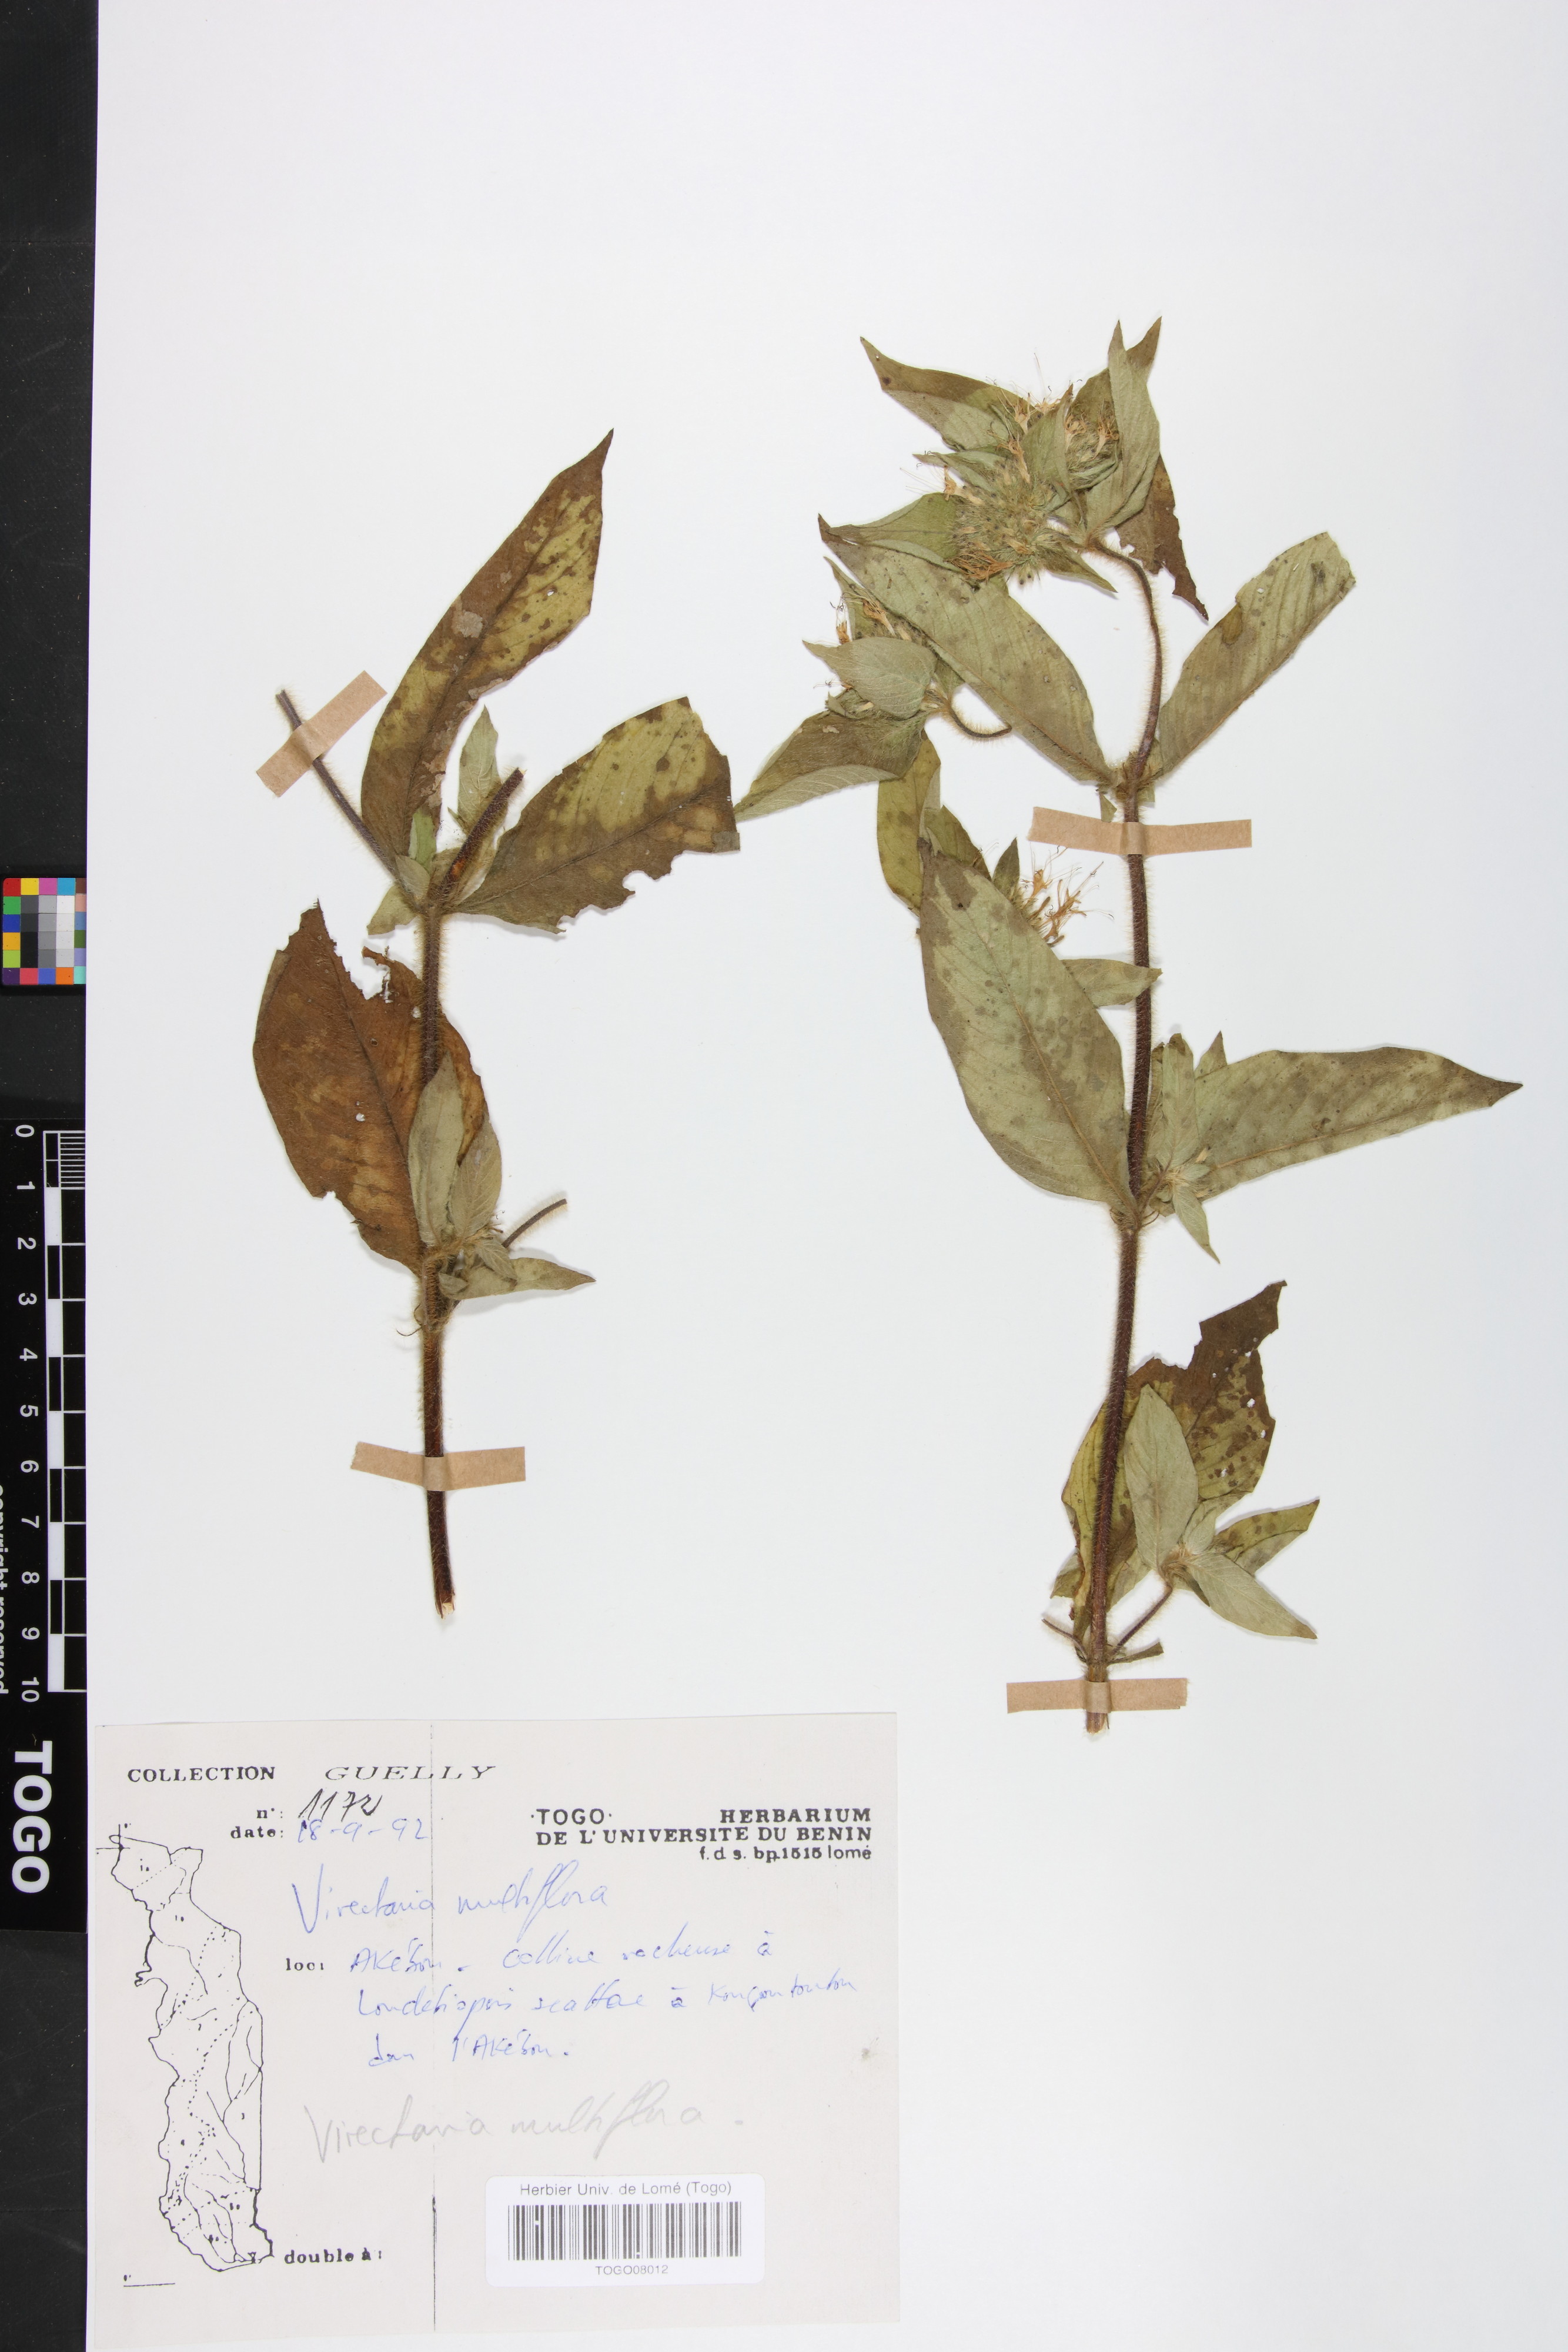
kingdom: Plantae
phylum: Tracheophyta
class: Magnoliopsida
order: Gentianales
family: Rubiaceae
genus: Virectaria
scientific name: Virectaria multiflora
